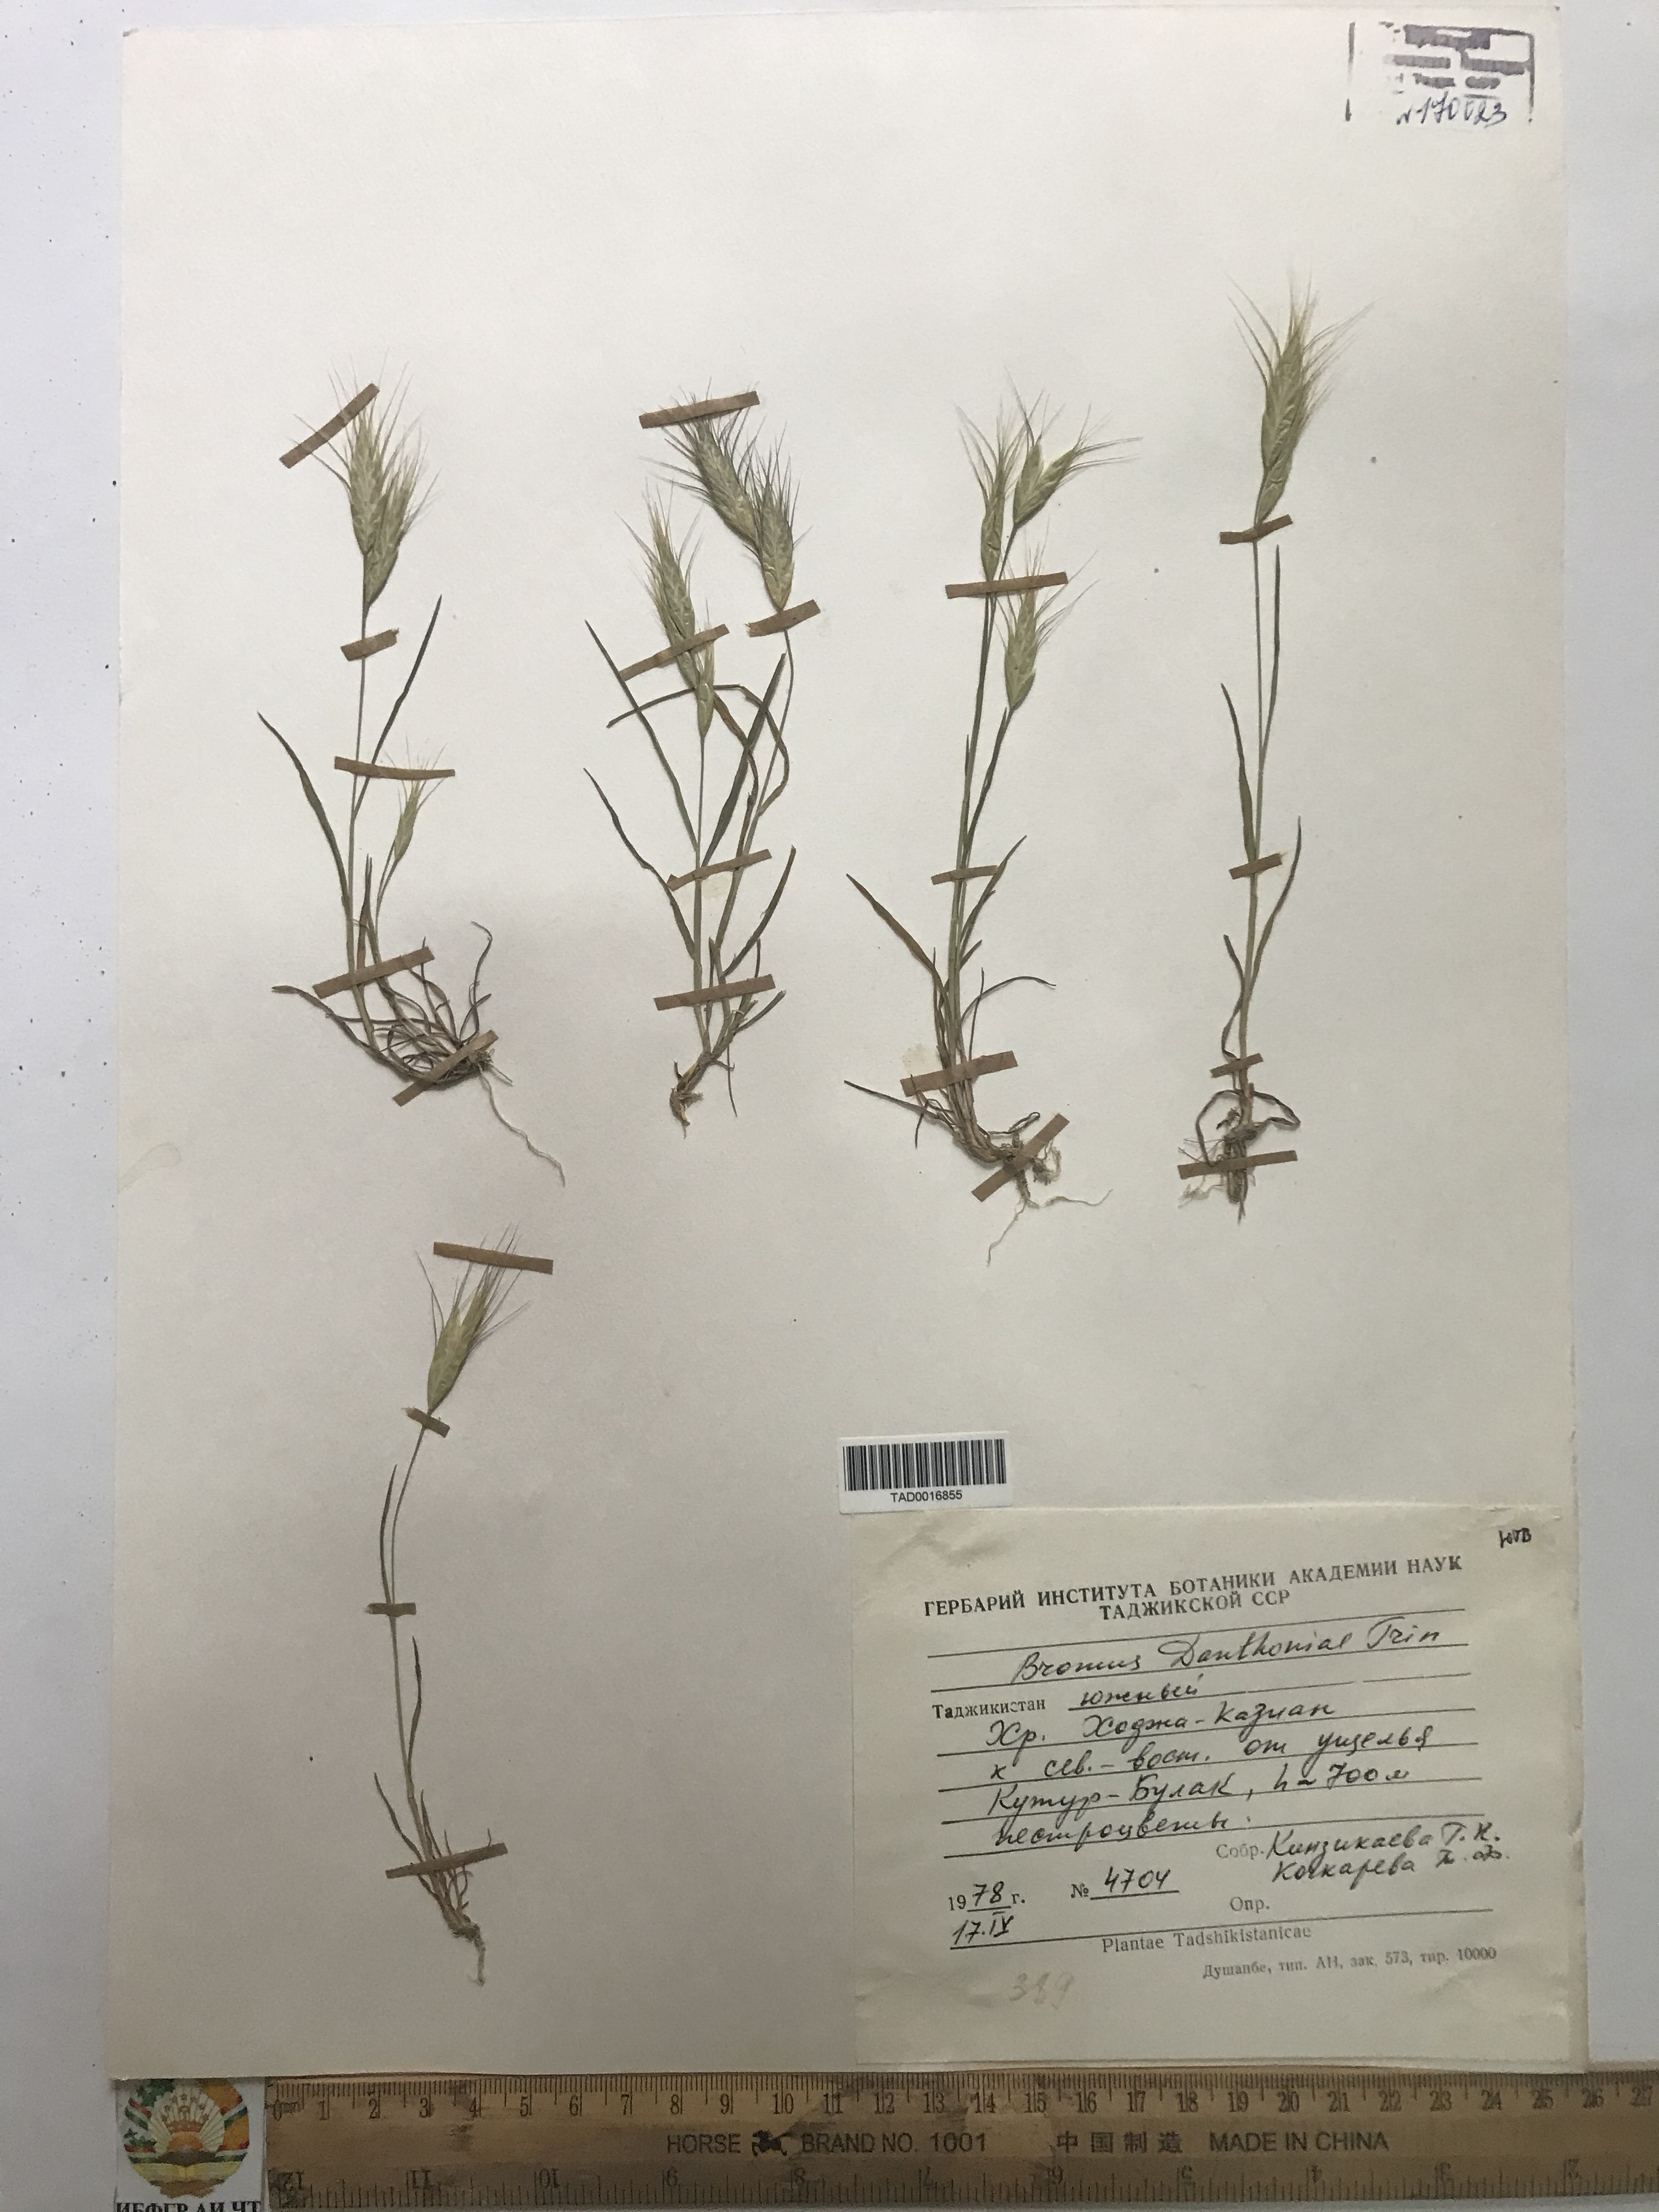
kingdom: Plantae
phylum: Tracheophyta
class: Liliopsida
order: Poales
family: Poaceae
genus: Bromus
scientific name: Bromus danthoniae
